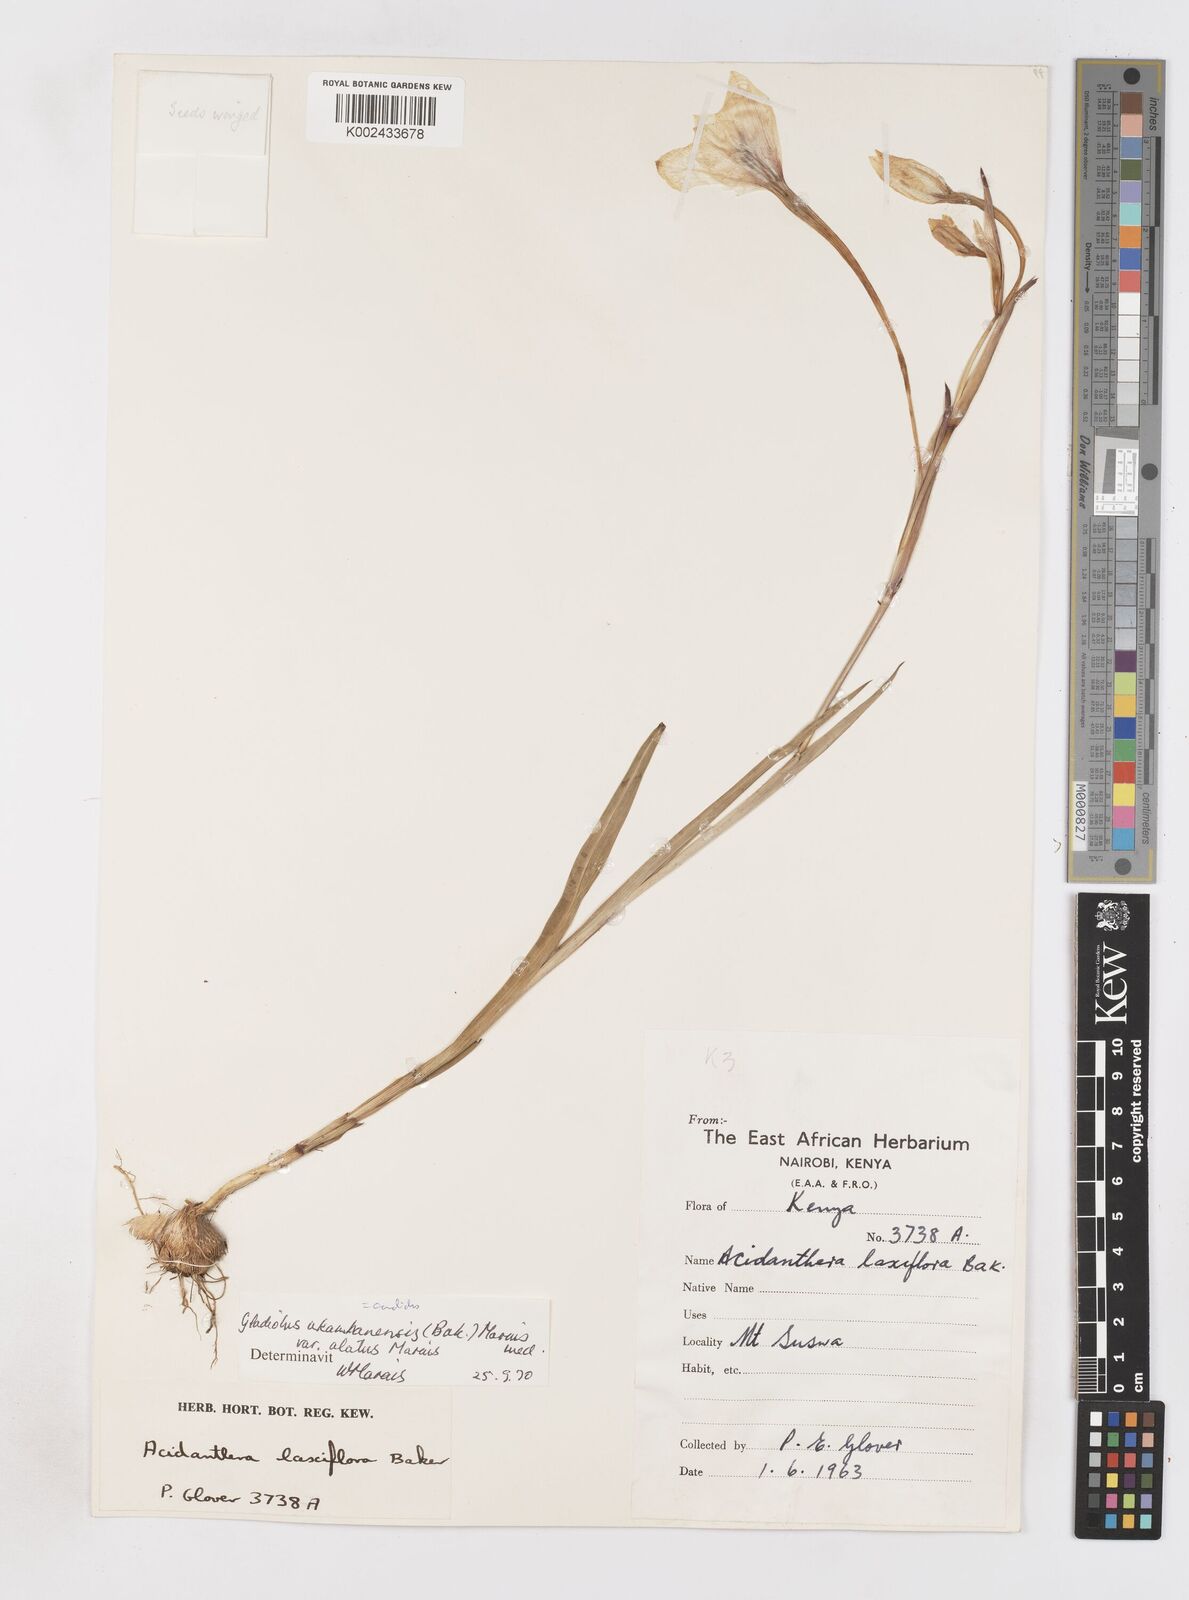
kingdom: Plantae
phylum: Tracheophyta
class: Liliopsida
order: Asparagales
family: Iridaceae
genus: Gladiolus
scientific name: Gladiolus candidus
